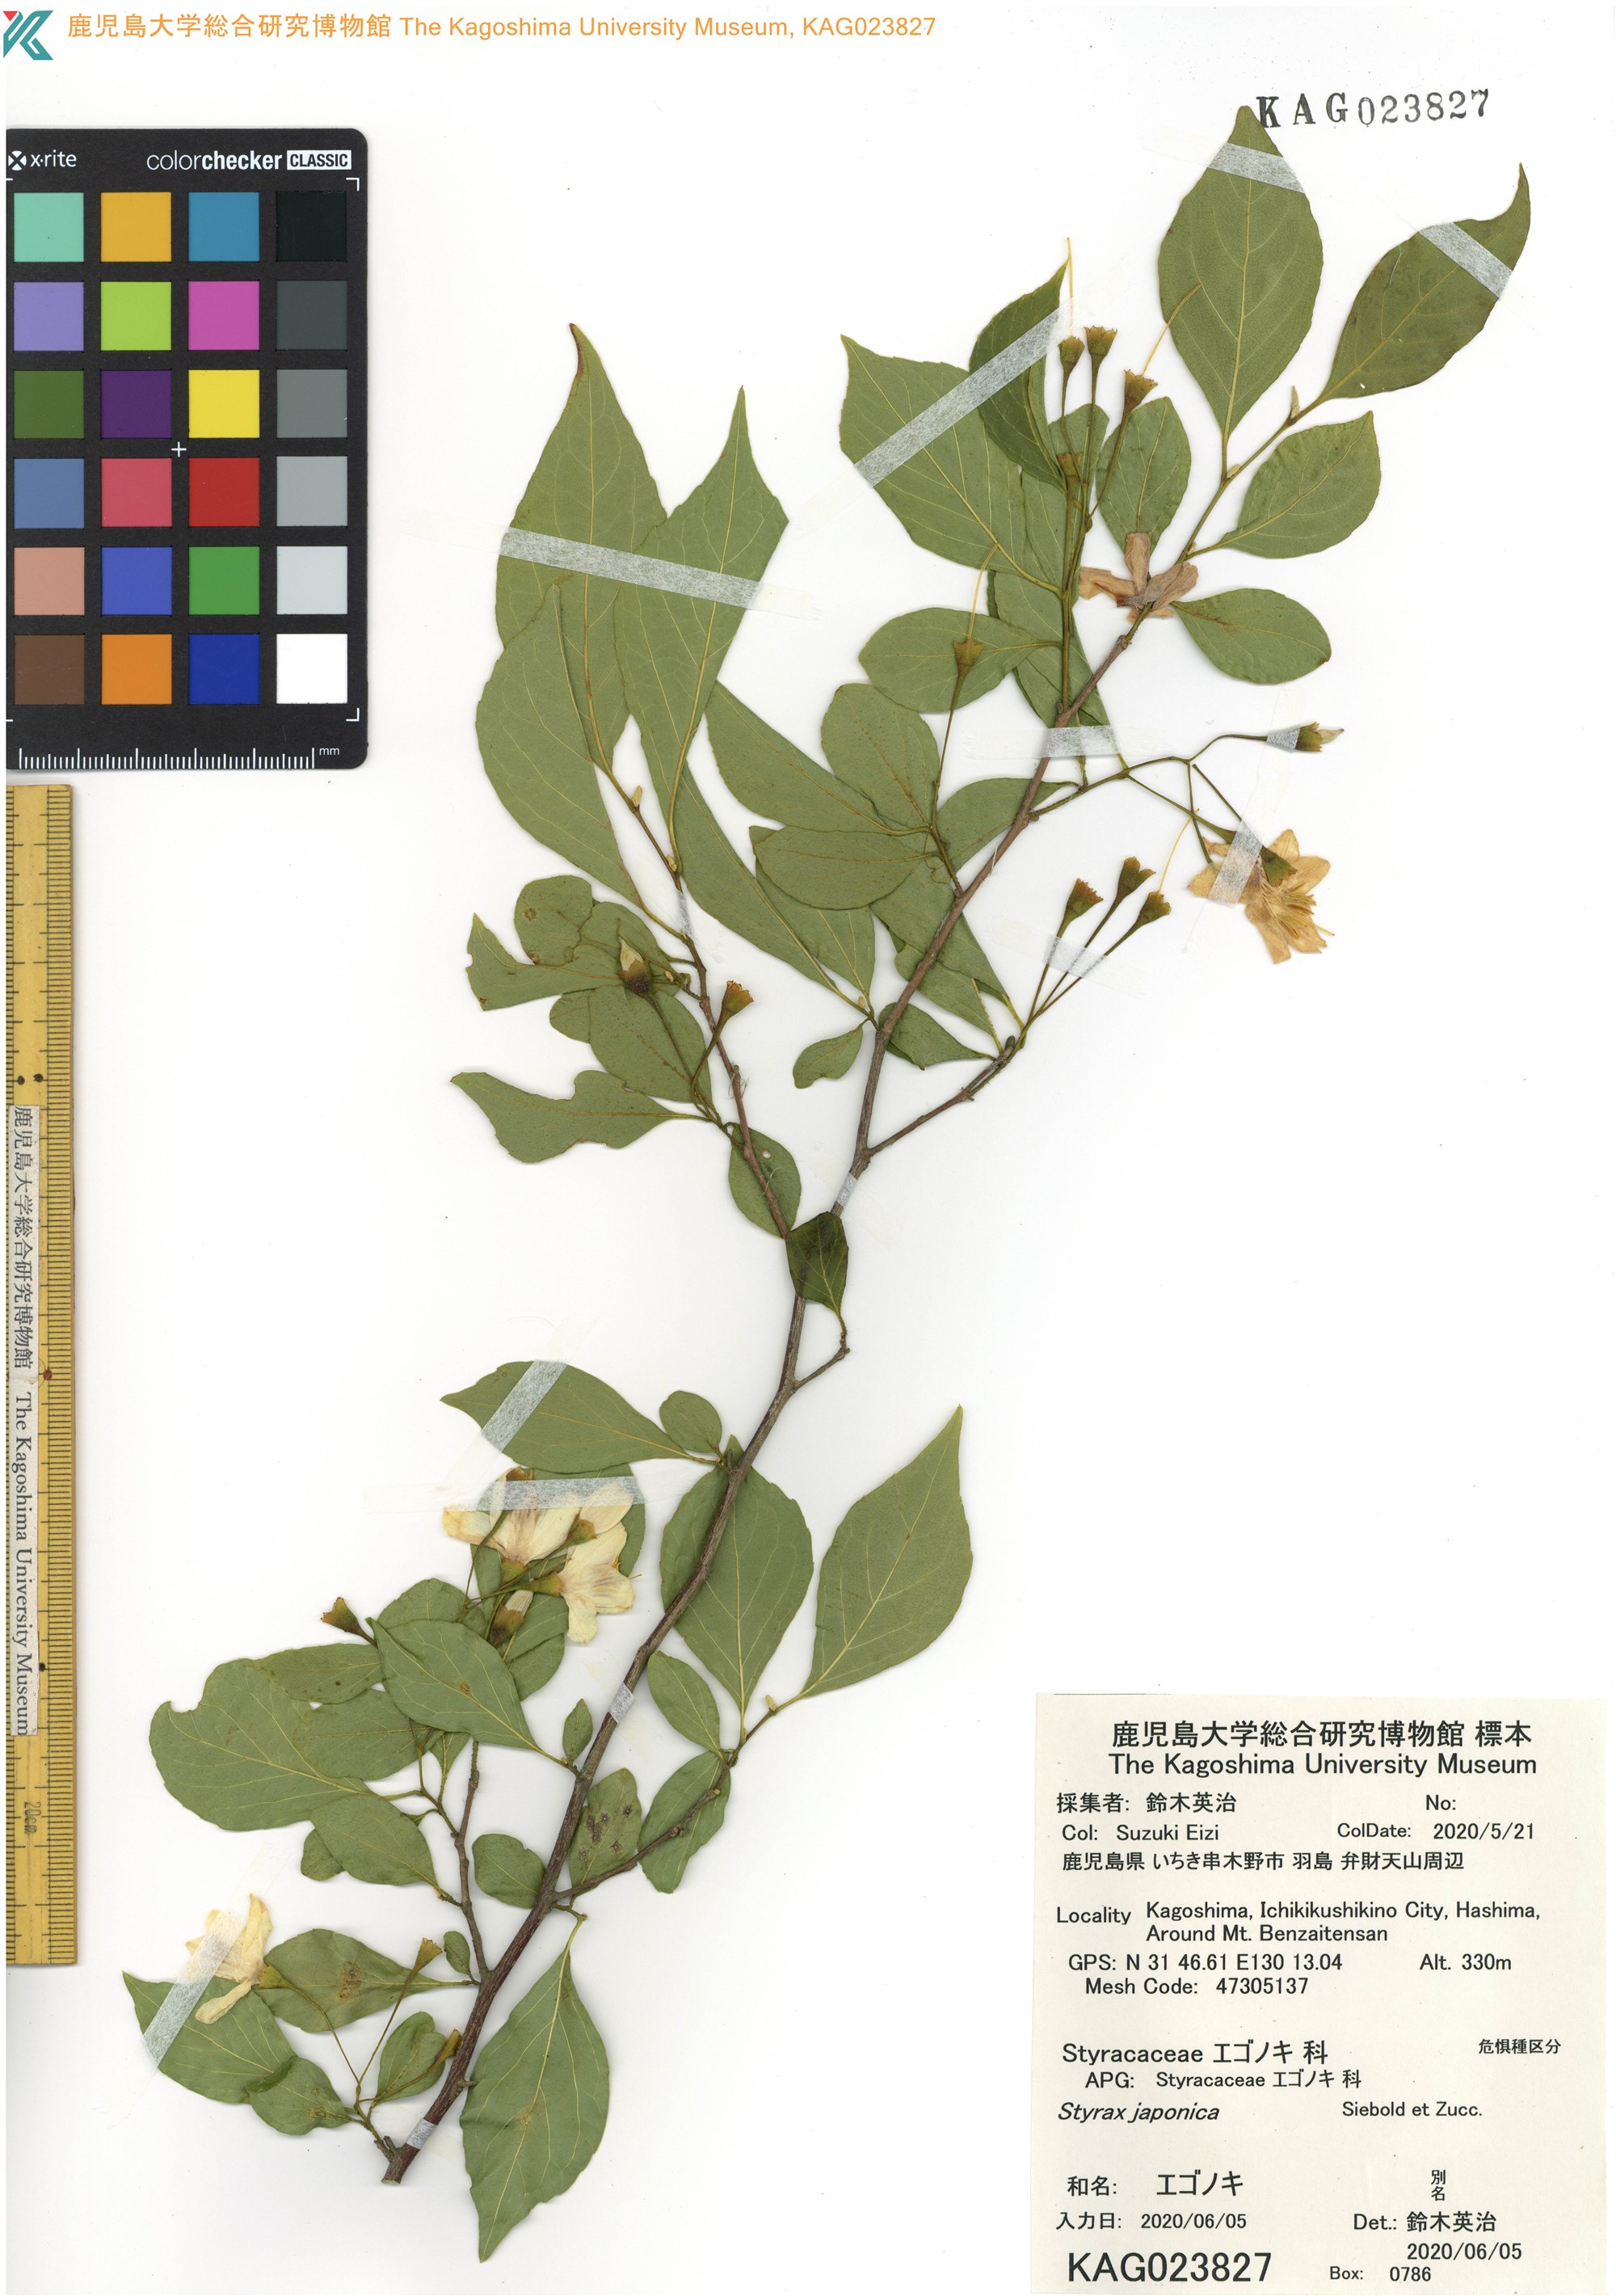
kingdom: Plantae
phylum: Tracheophyta
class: Magnoliopsida
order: Ericales
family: Styracaceae
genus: Styrax
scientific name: Styrax japonicus
